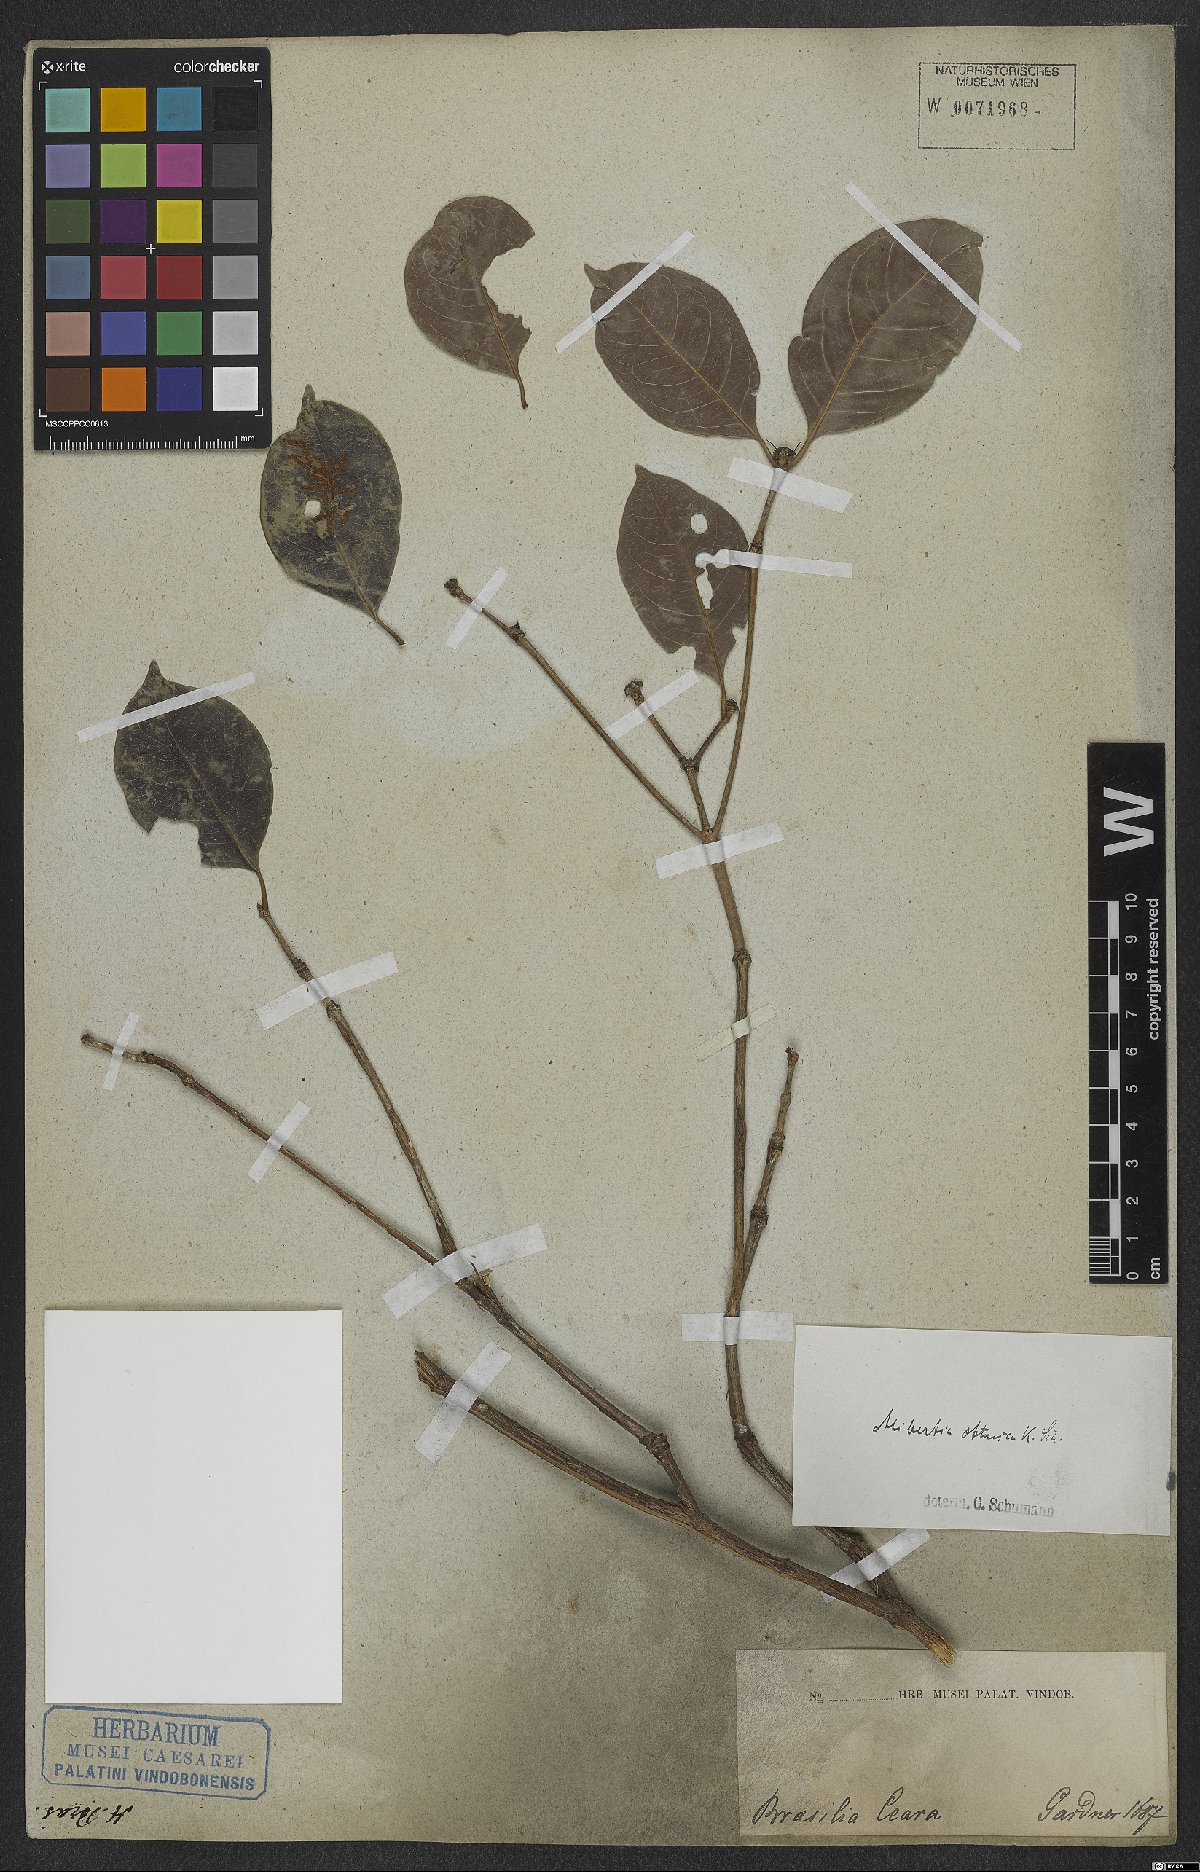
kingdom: Plantae
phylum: Tracheophyta
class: Magnoliopsida
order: Gentianales
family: Rubiaceae
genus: Cordiera
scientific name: Cordiera obtusa
